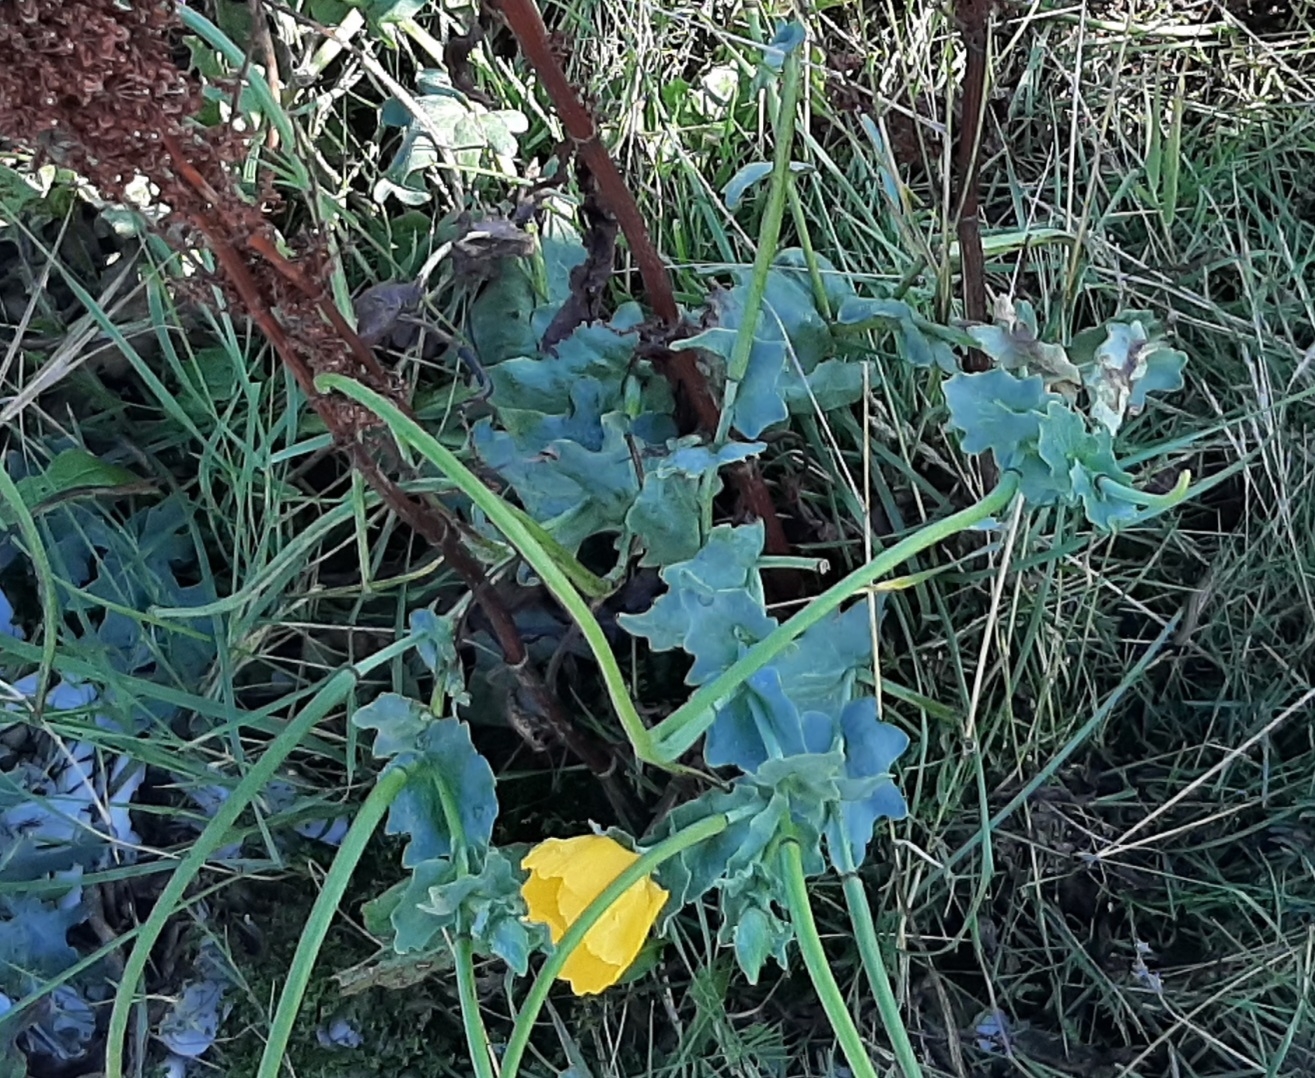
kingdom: Plantae
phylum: Tracheophyta
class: Magnoliopsida
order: Ranunculales
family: Papaveraceae
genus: Glaucium
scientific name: Glaucium flavum
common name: Hornskulpe
